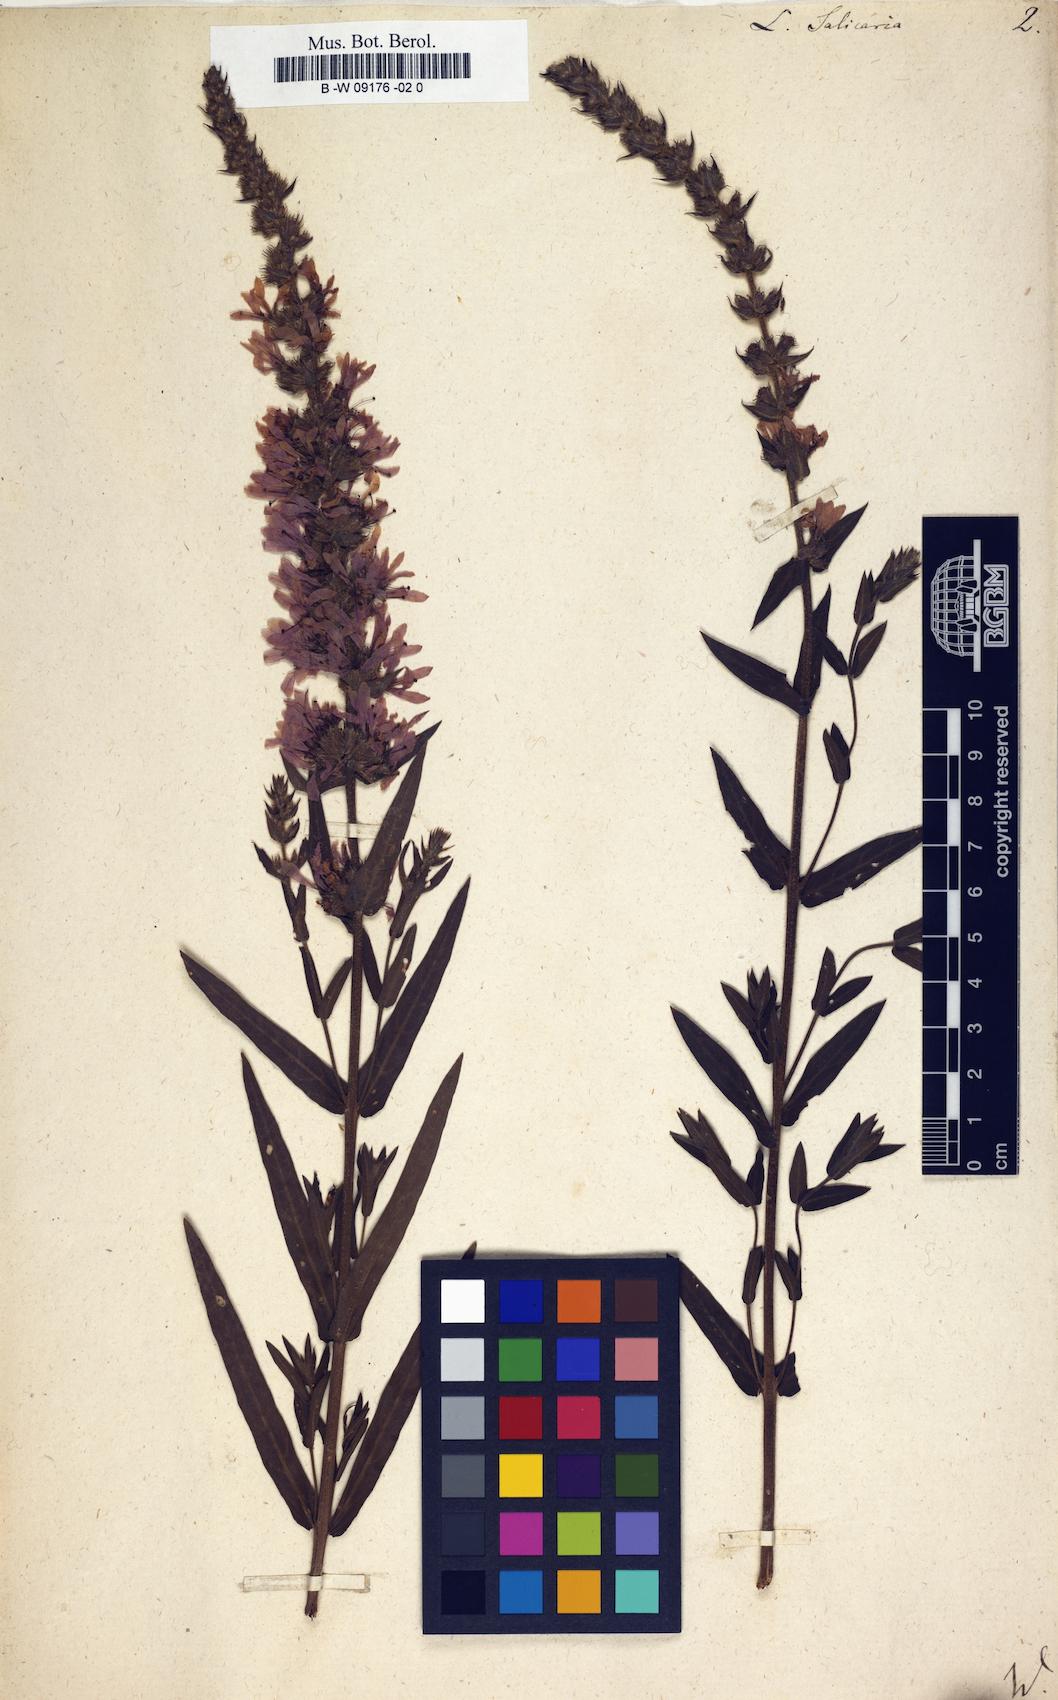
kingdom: Plantae
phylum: Tracheophyta
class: Magnoliopsida
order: Myrtales
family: Lythraceae
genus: Lythrum
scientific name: Lythrum salicaria
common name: Purple loosestrife
